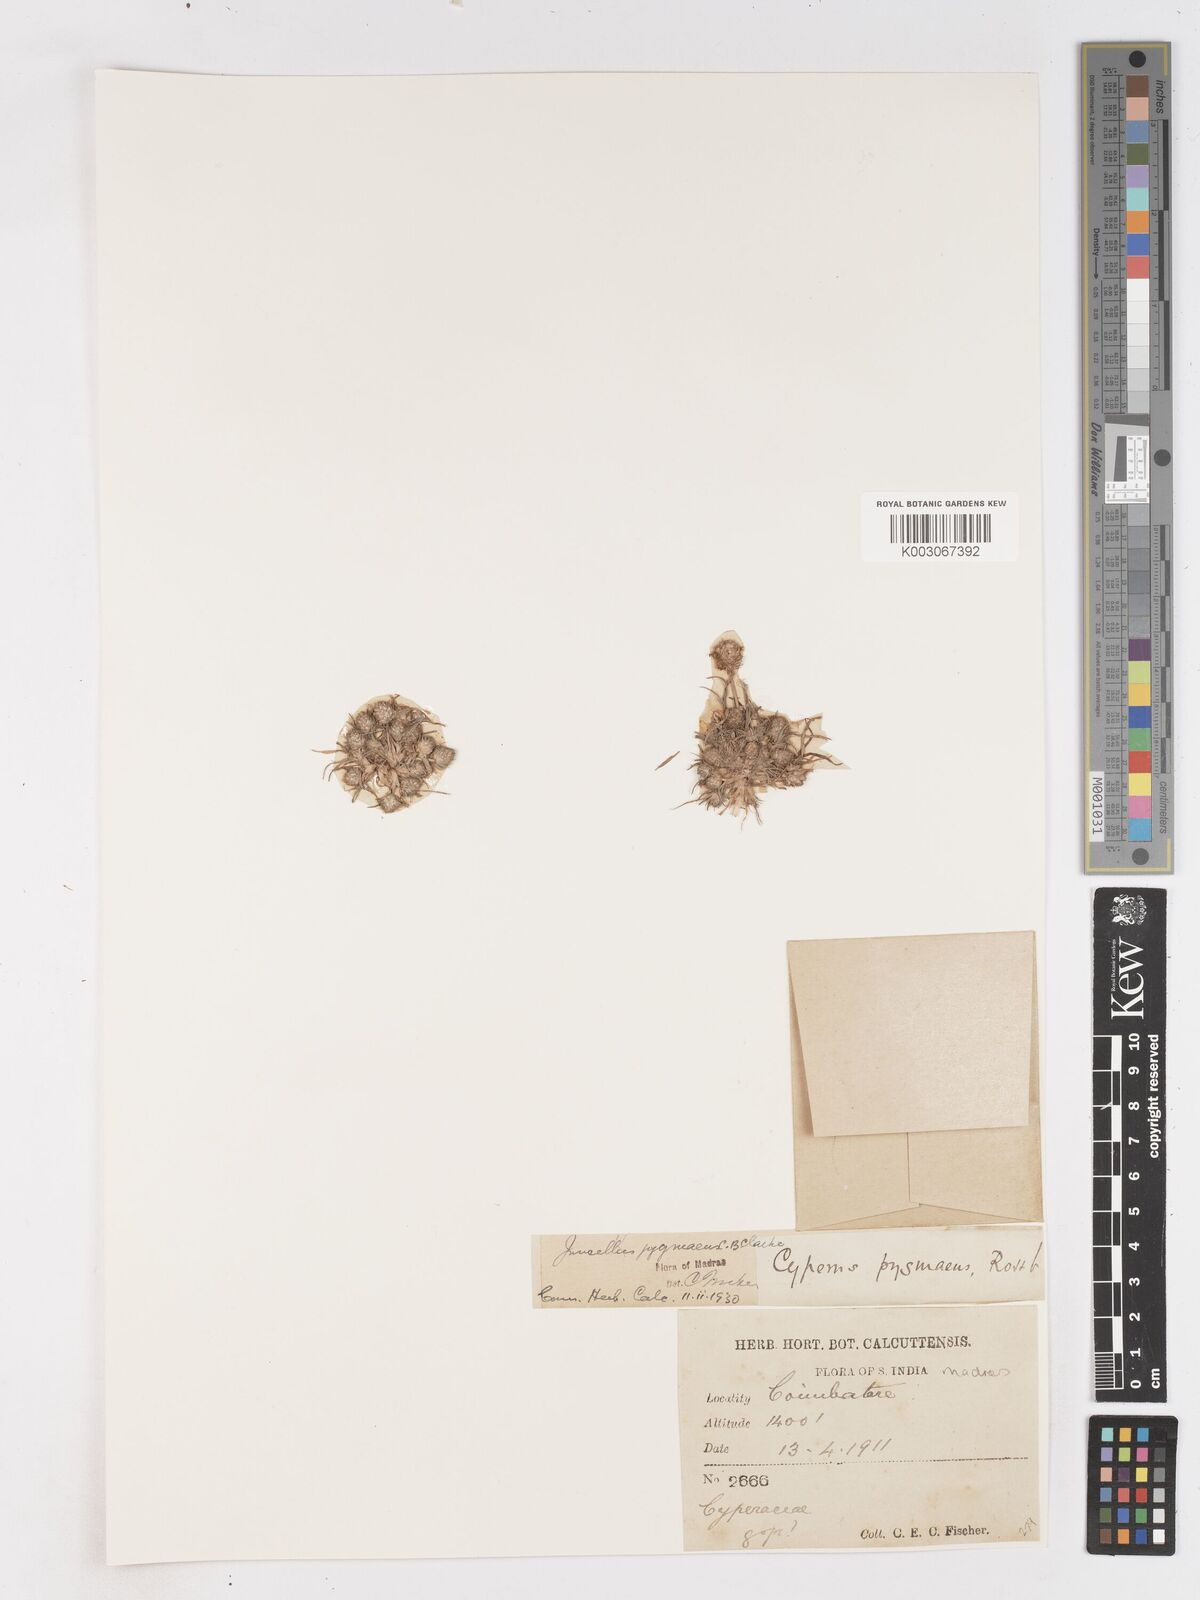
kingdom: Plantae
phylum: Tracheophyta
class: Liliopsida
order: Poales
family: Cyperaceae
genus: Cyperus
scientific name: Cyperus michelianus
